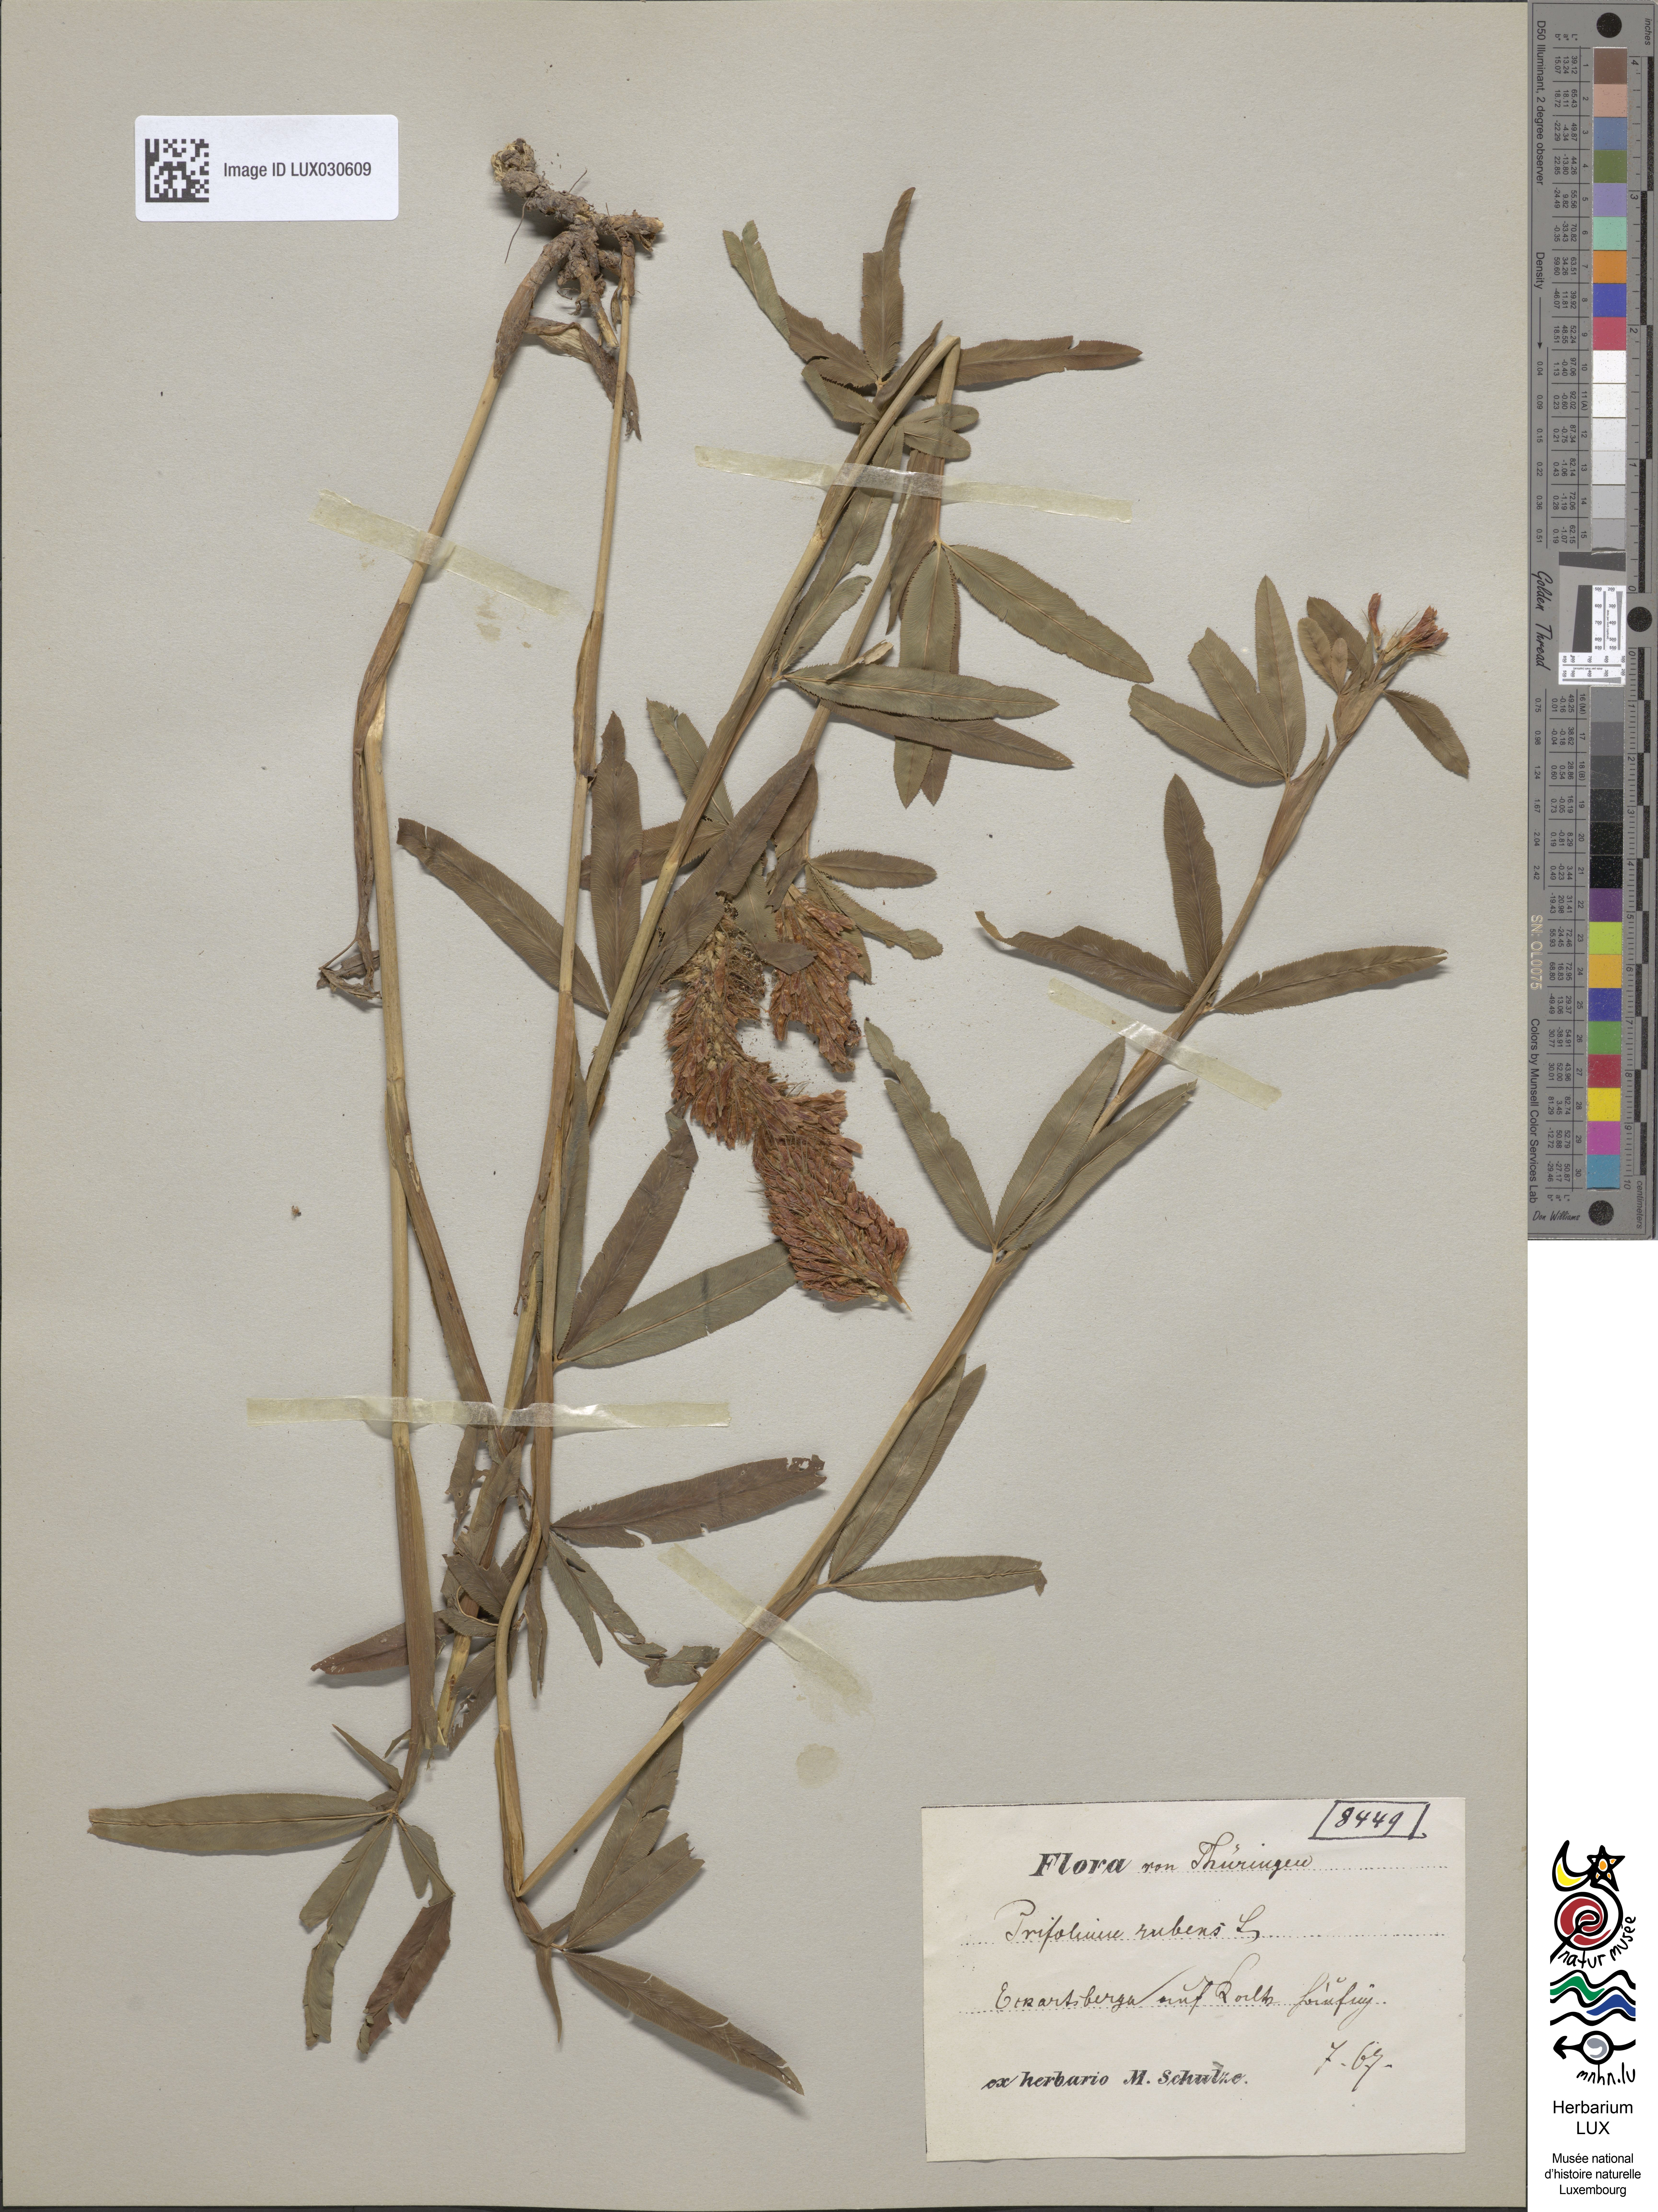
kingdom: Plantae
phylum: Tracheophyta
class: Magnoliopsida
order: Fabales
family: Fabaceae
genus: Trifolium
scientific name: Trifolium rubens
